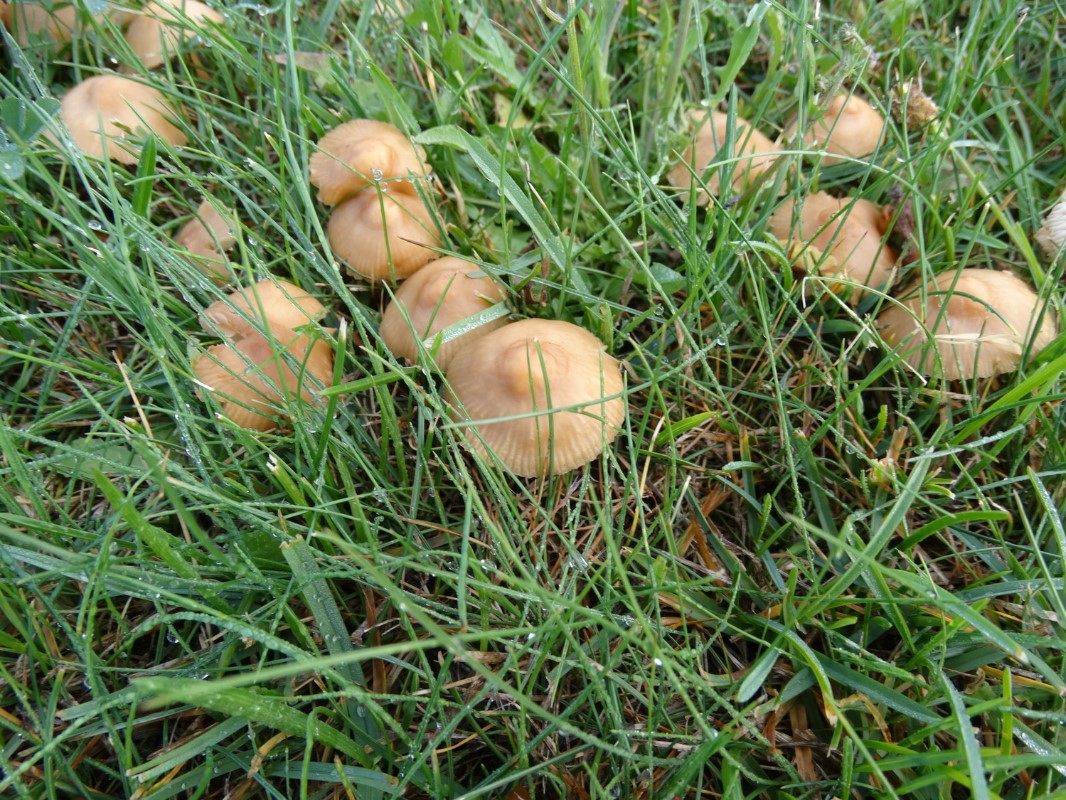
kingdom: Fungi
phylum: Basidiomycota
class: Agaricomycetes
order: Agaricales
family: Marasmiaceae
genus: Marasmius
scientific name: Marasmius oreades
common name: elledans-bruskhat
